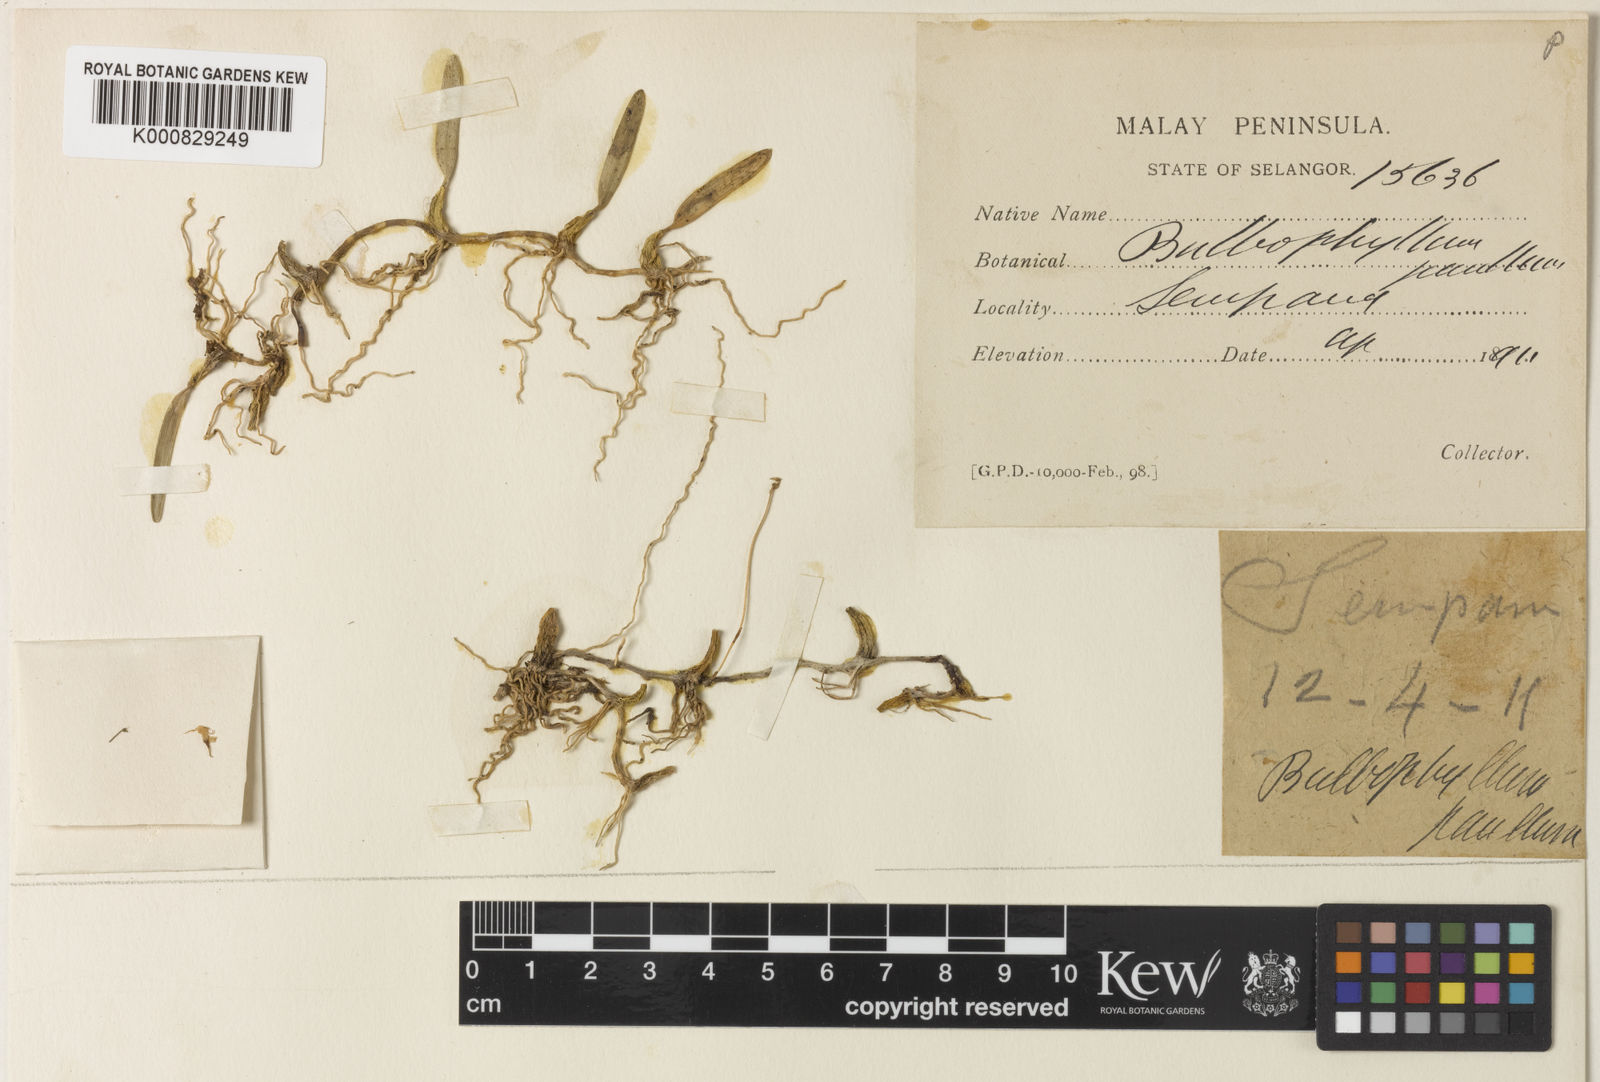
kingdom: Plantae
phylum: Tracheophyta
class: Liliopsida
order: Asparagales
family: Orchidaceae
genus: Bulbophyllum
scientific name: Bulbophyllum sulcatum
